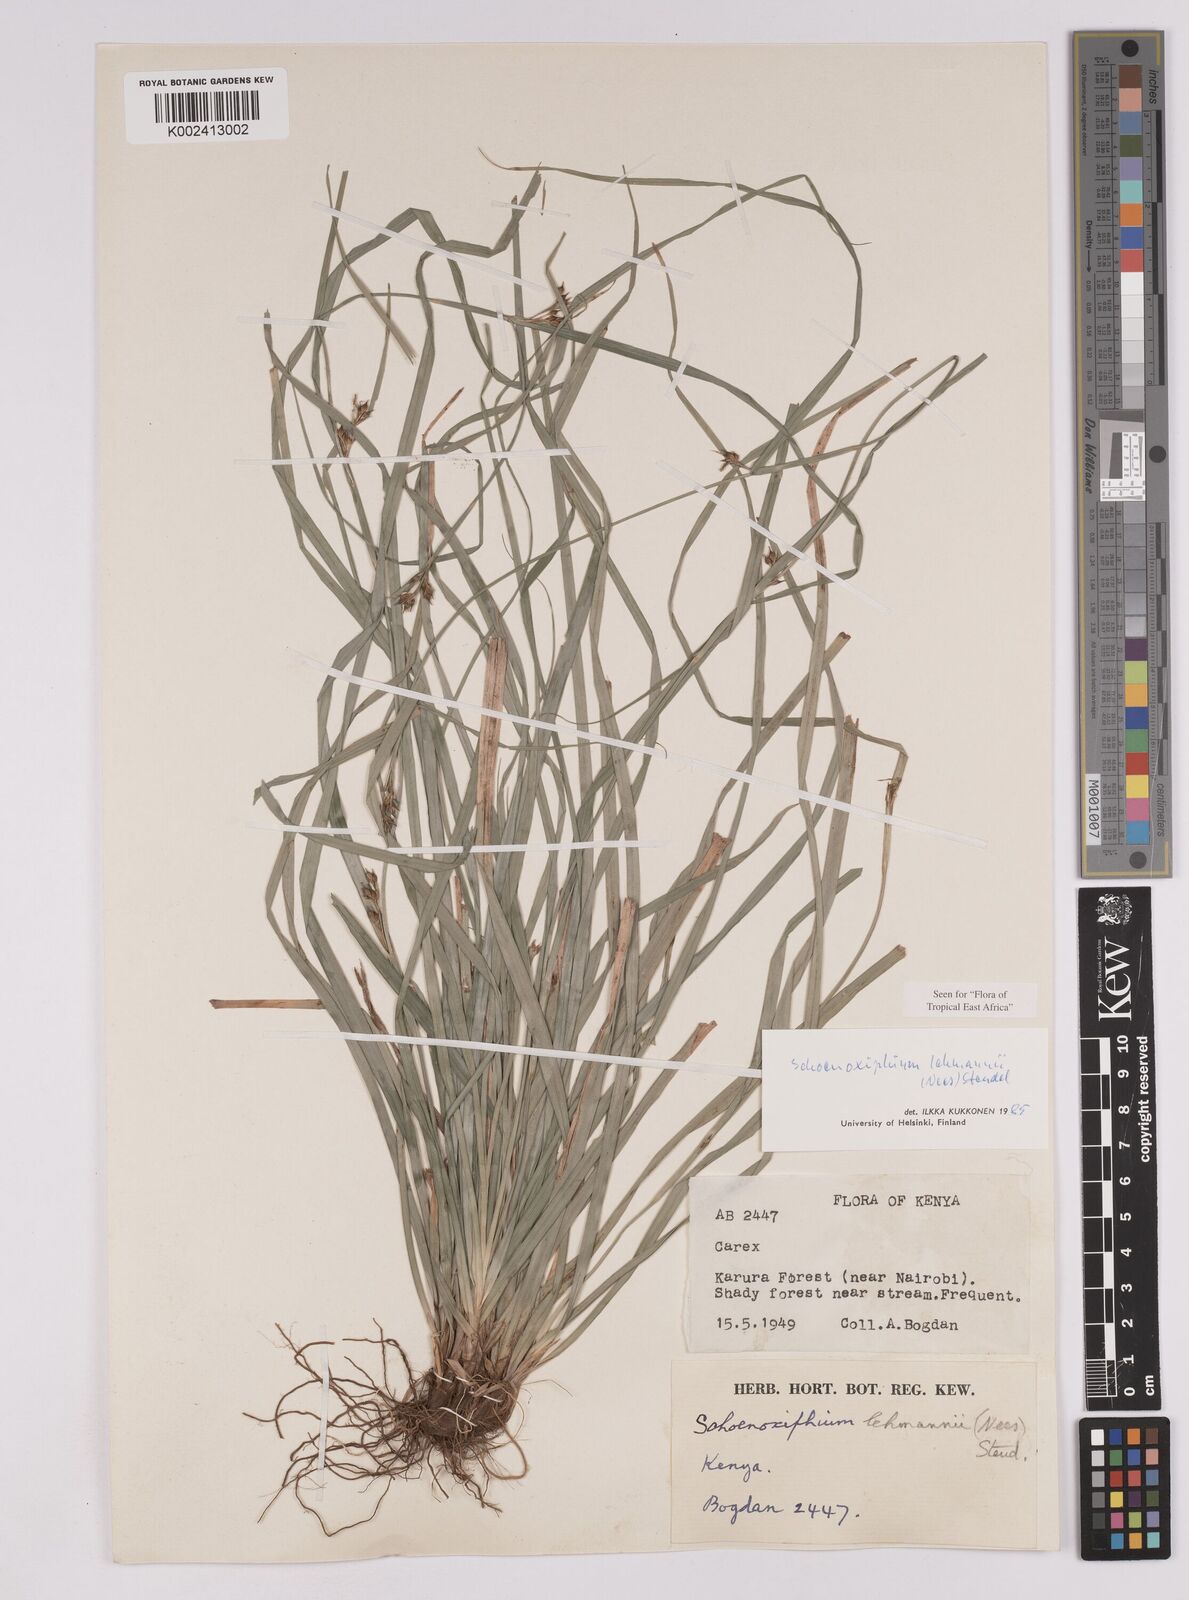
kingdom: Plantae
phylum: Tracheophyta
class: Liliopsida
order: Poales
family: Cyperaceae
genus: Carex
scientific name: Carex uhligii
